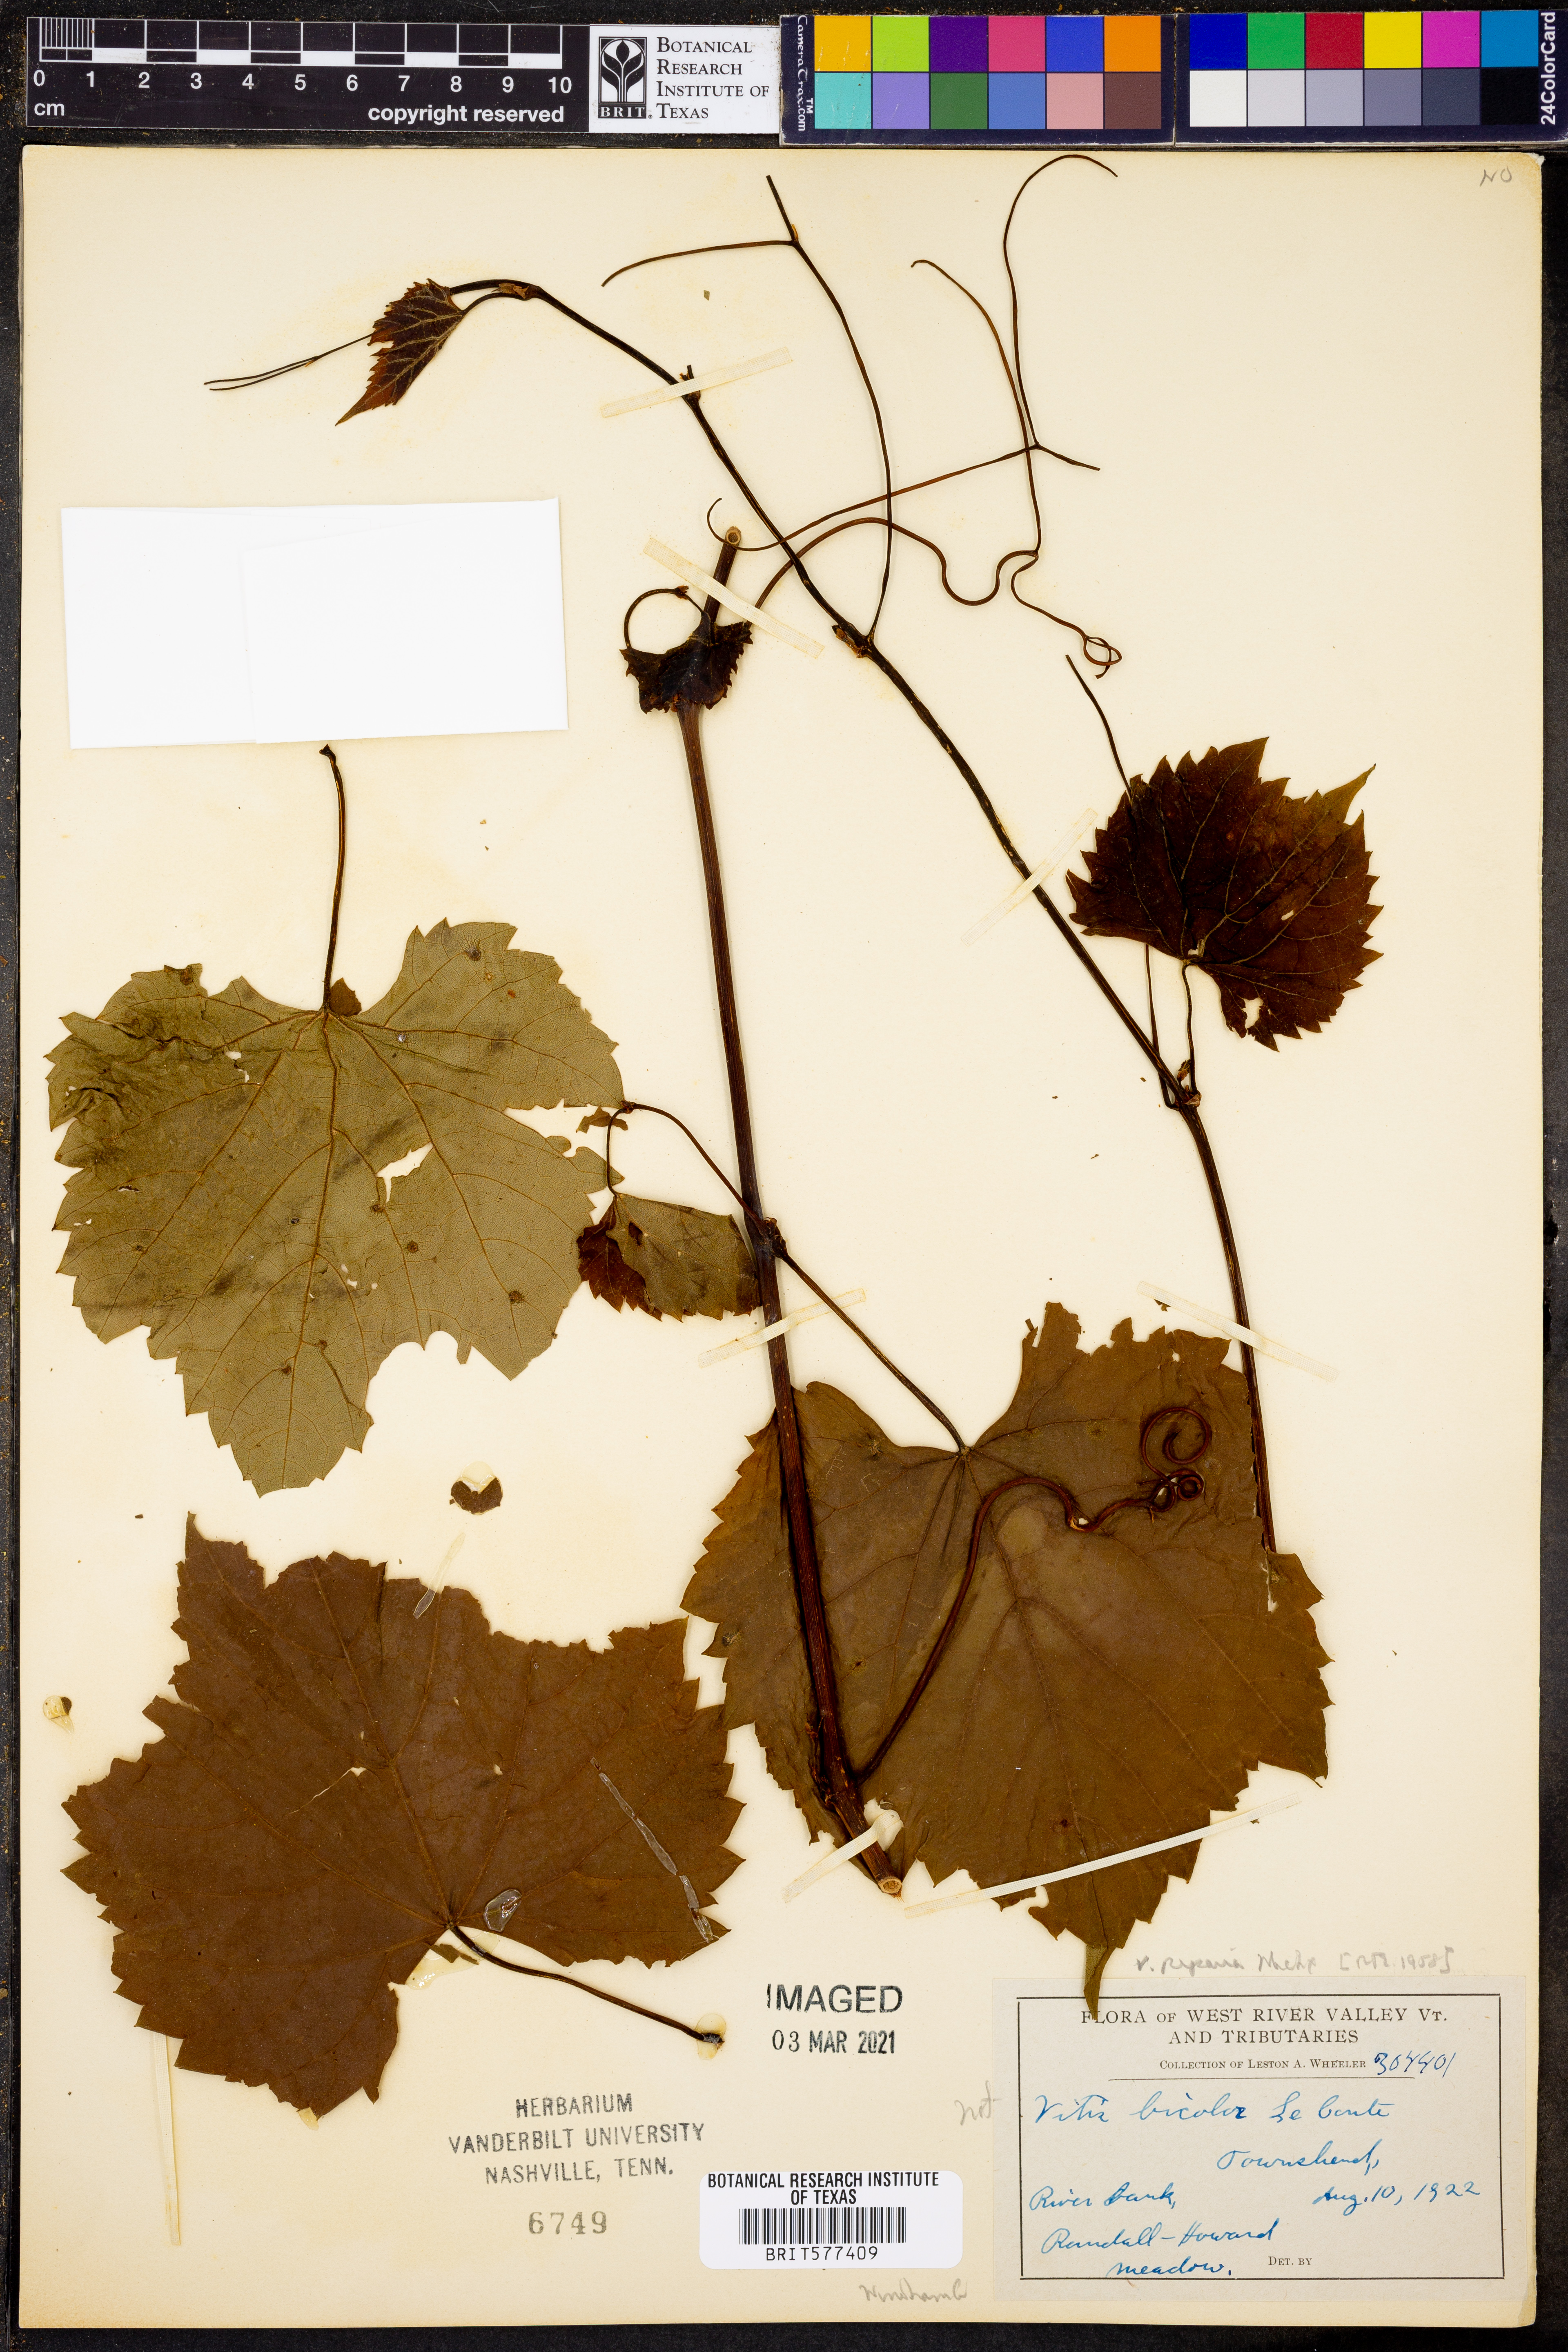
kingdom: Plantae
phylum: Tracheophyta
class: Magnoliopsida
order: Vitales
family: Vitaceae
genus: Vitis
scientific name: Vitis popenoei
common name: Totoloche
